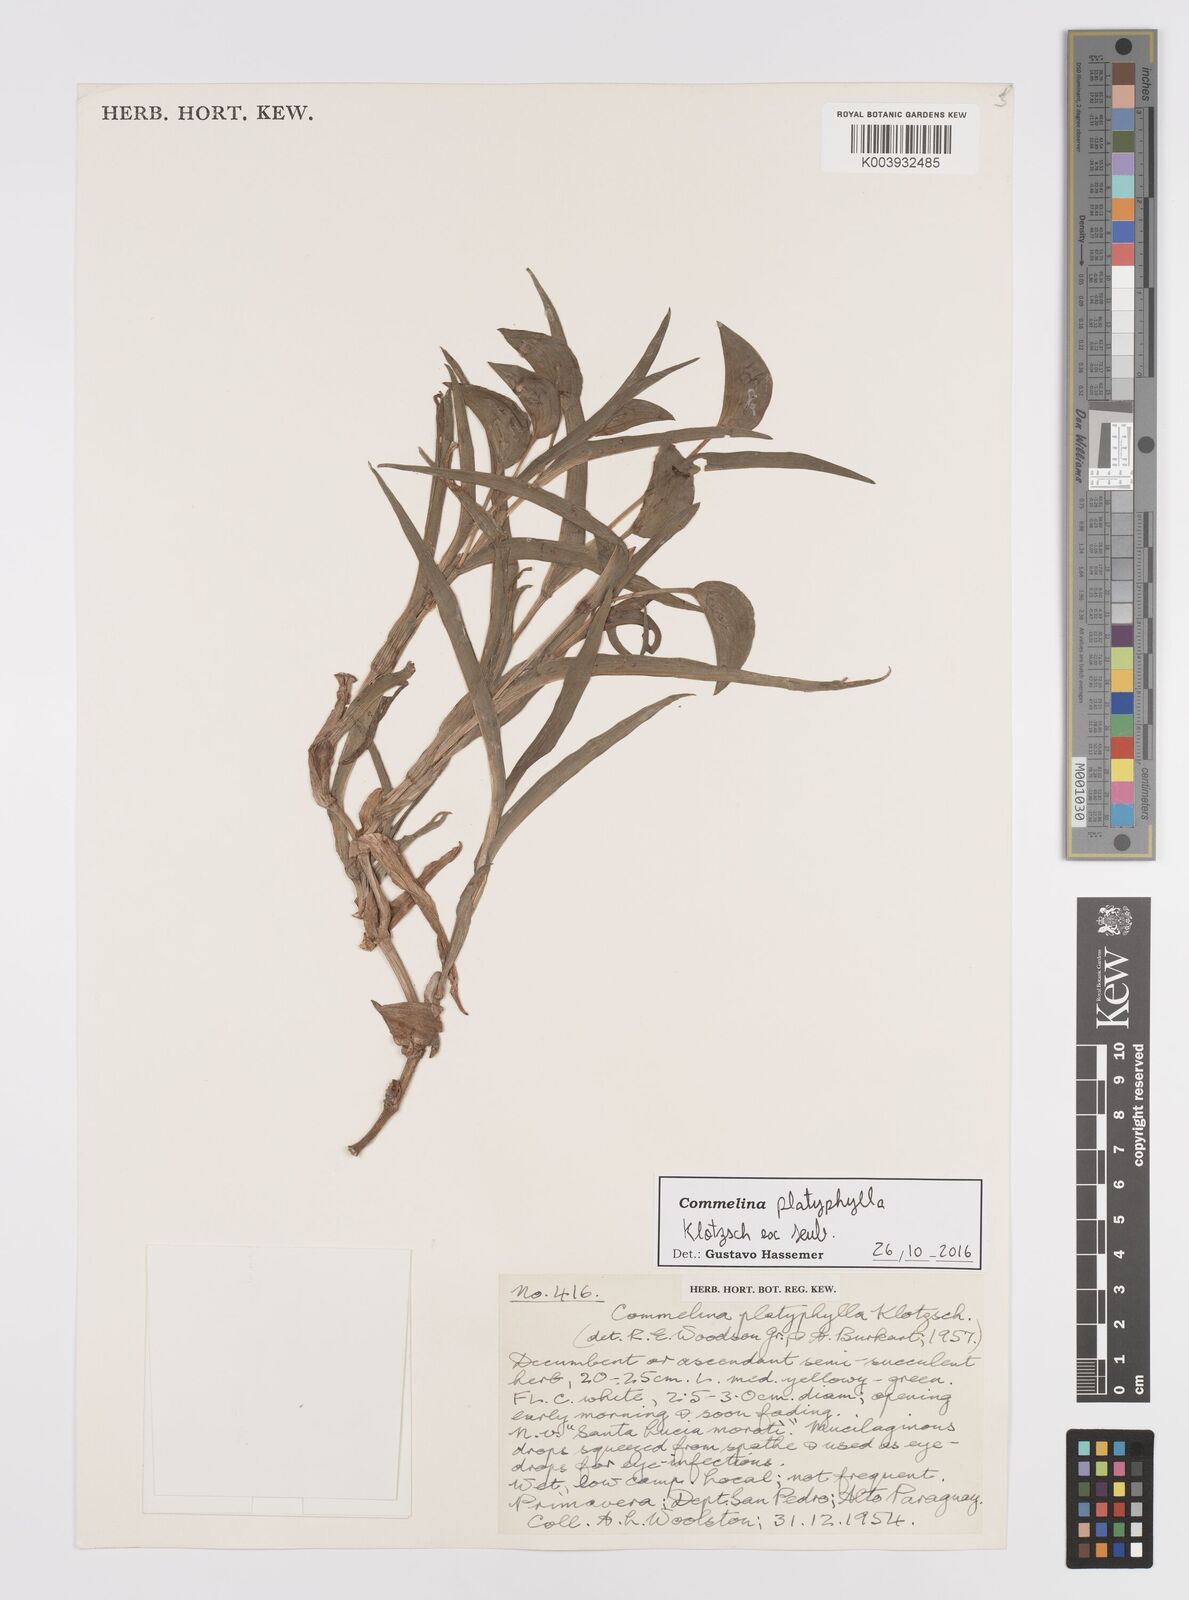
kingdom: Plantae
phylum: Tracheophyta
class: Liliopsida
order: Commelinales
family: Commelinaceae
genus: Commelina
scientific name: Commelina platyphylla
